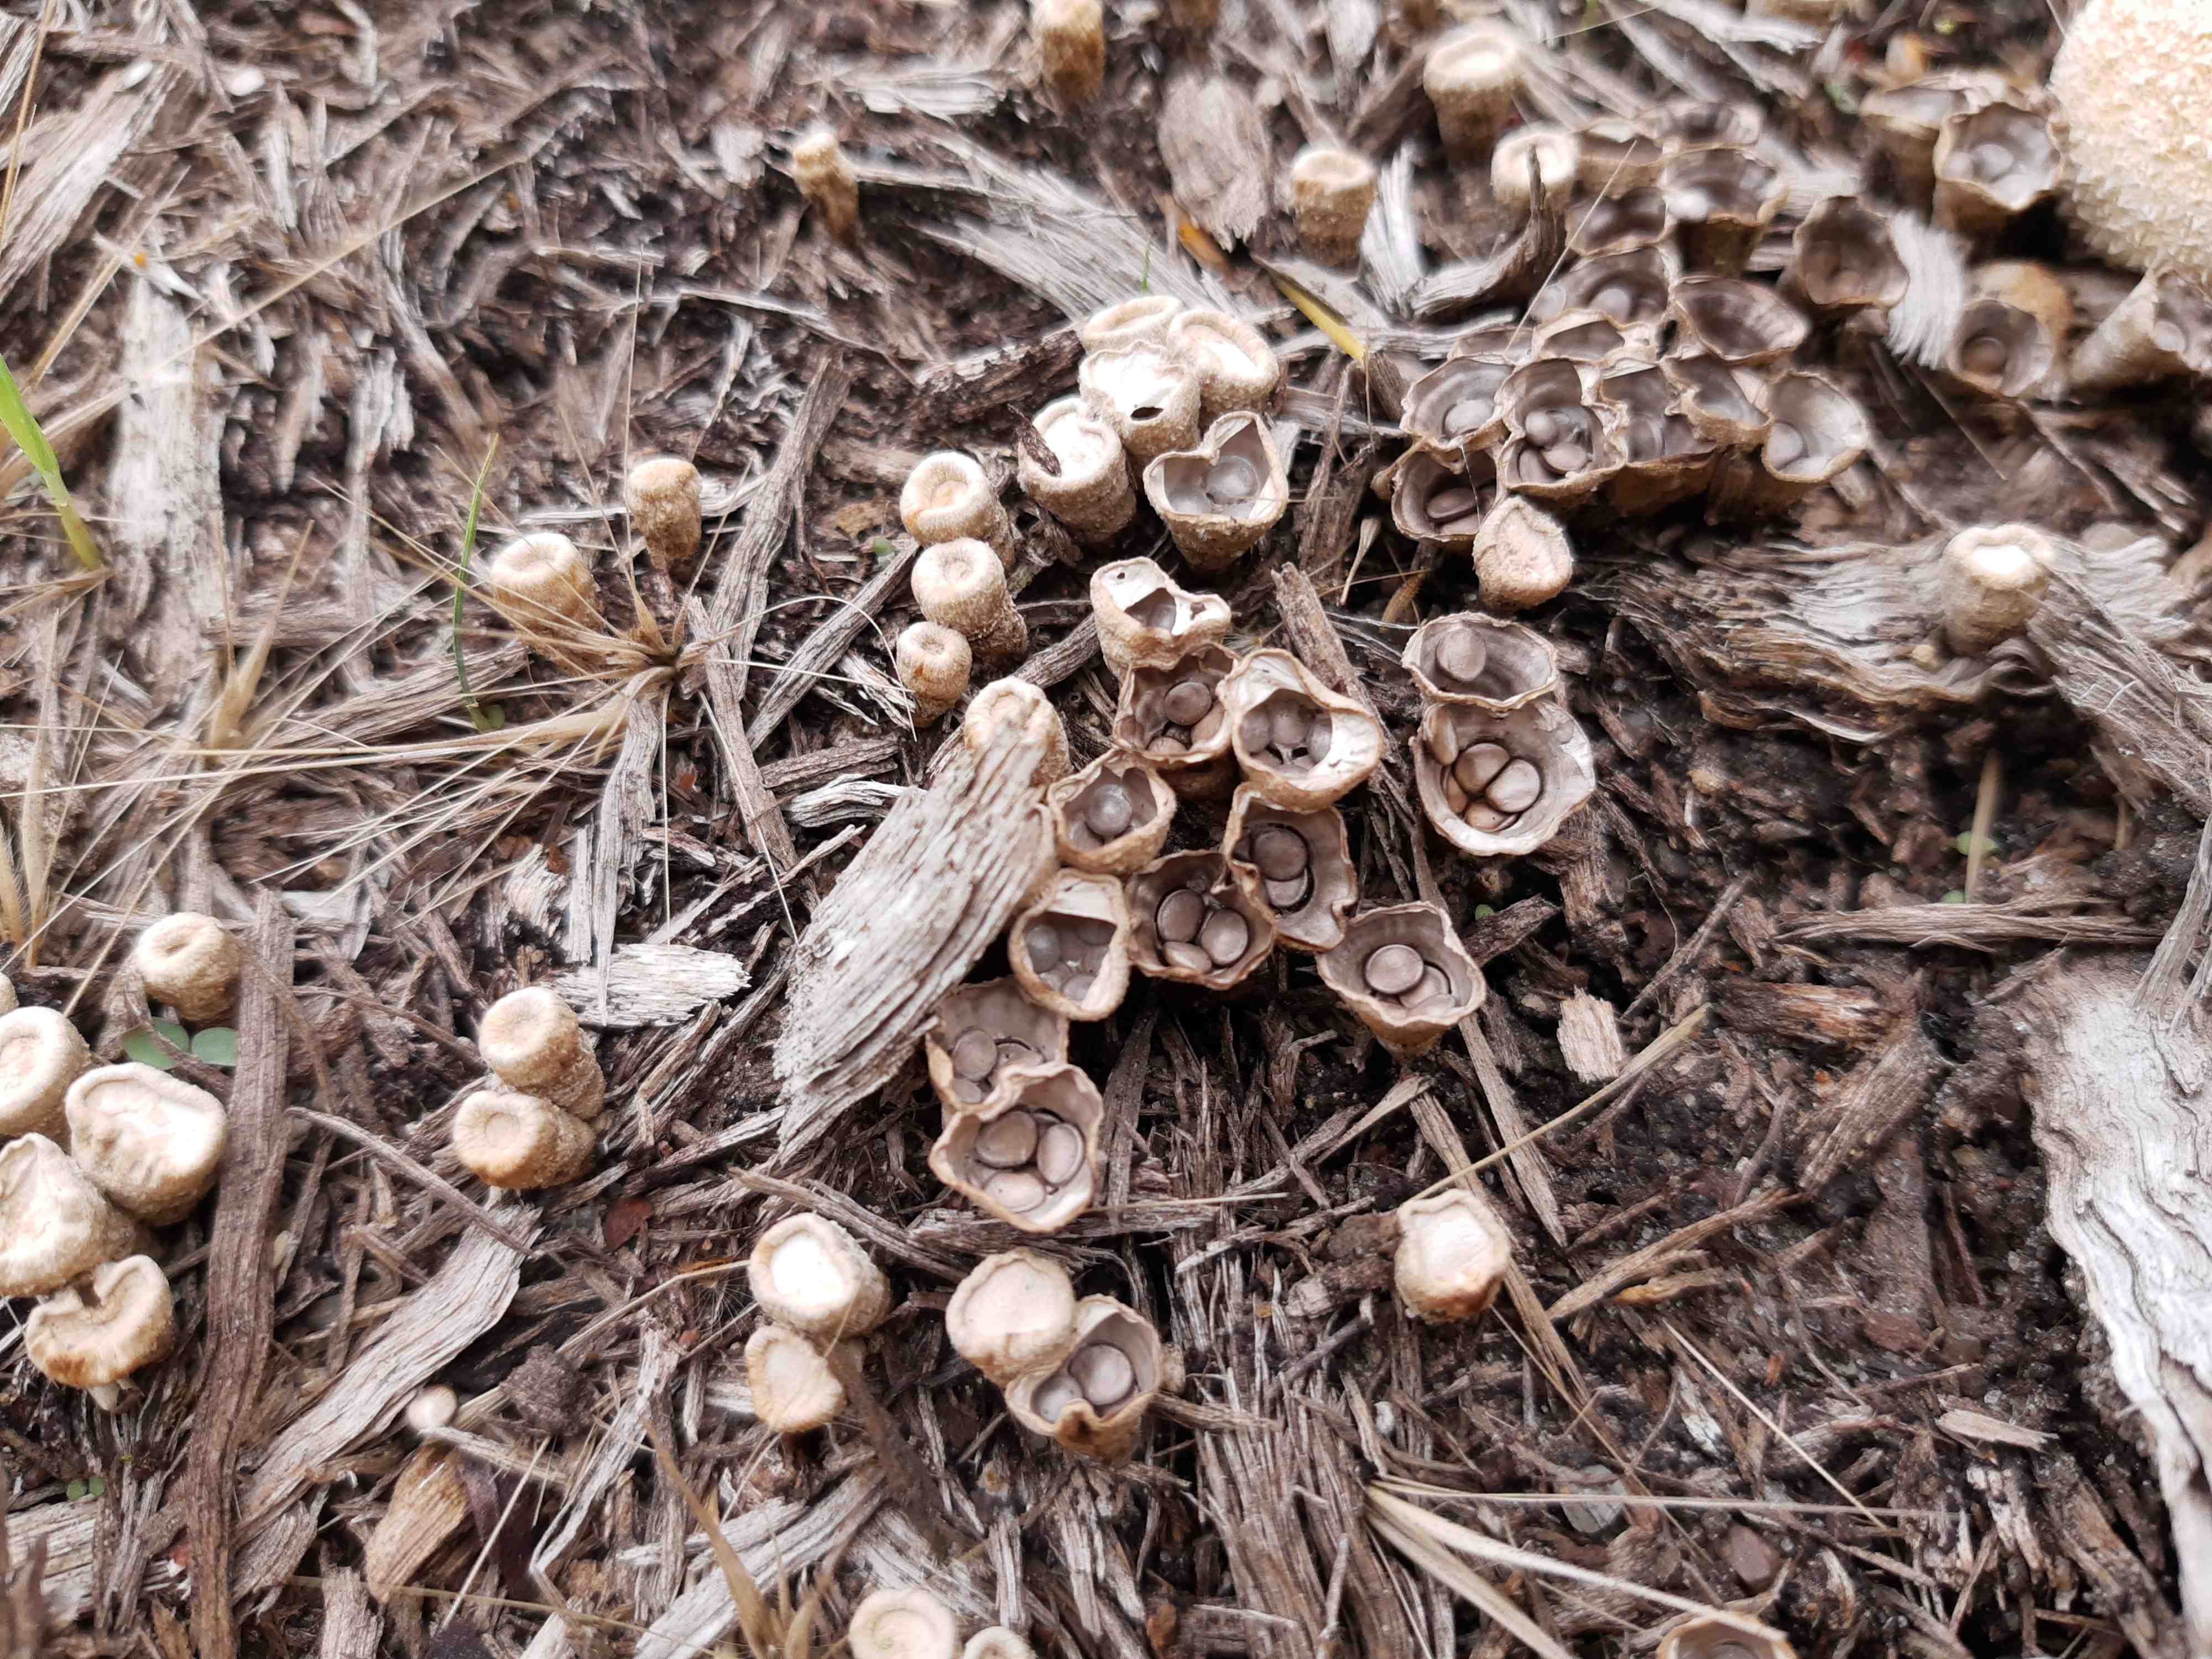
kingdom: Fungi
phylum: Basidiomycota
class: Agaricomycetes
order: Agaricales
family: Nidulariaceae
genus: Crucibulum
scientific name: Crucibulum crucibuliforme
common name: krukkesvamp
